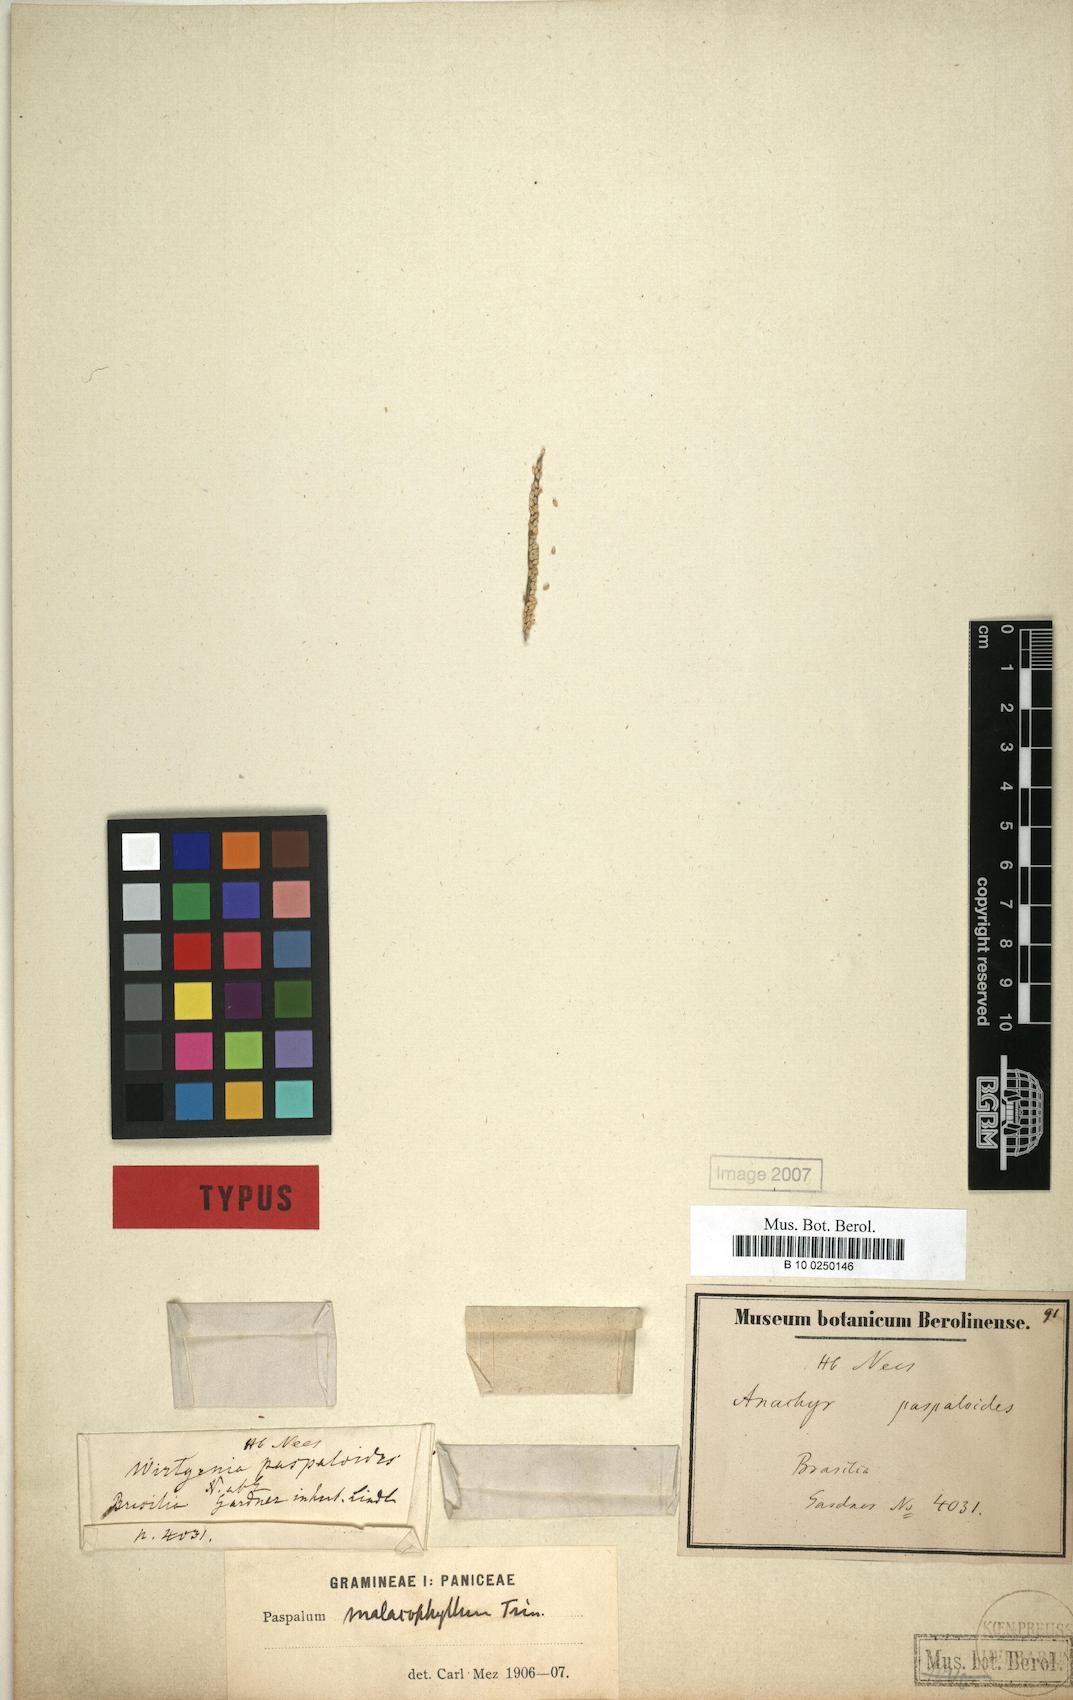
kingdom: Plantae
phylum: Tracheophyta
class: Liliopsida
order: Poales
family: Poaceae
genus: Paspalum
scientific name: Paspalum malacophyllum
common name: Ribbed paspalum
